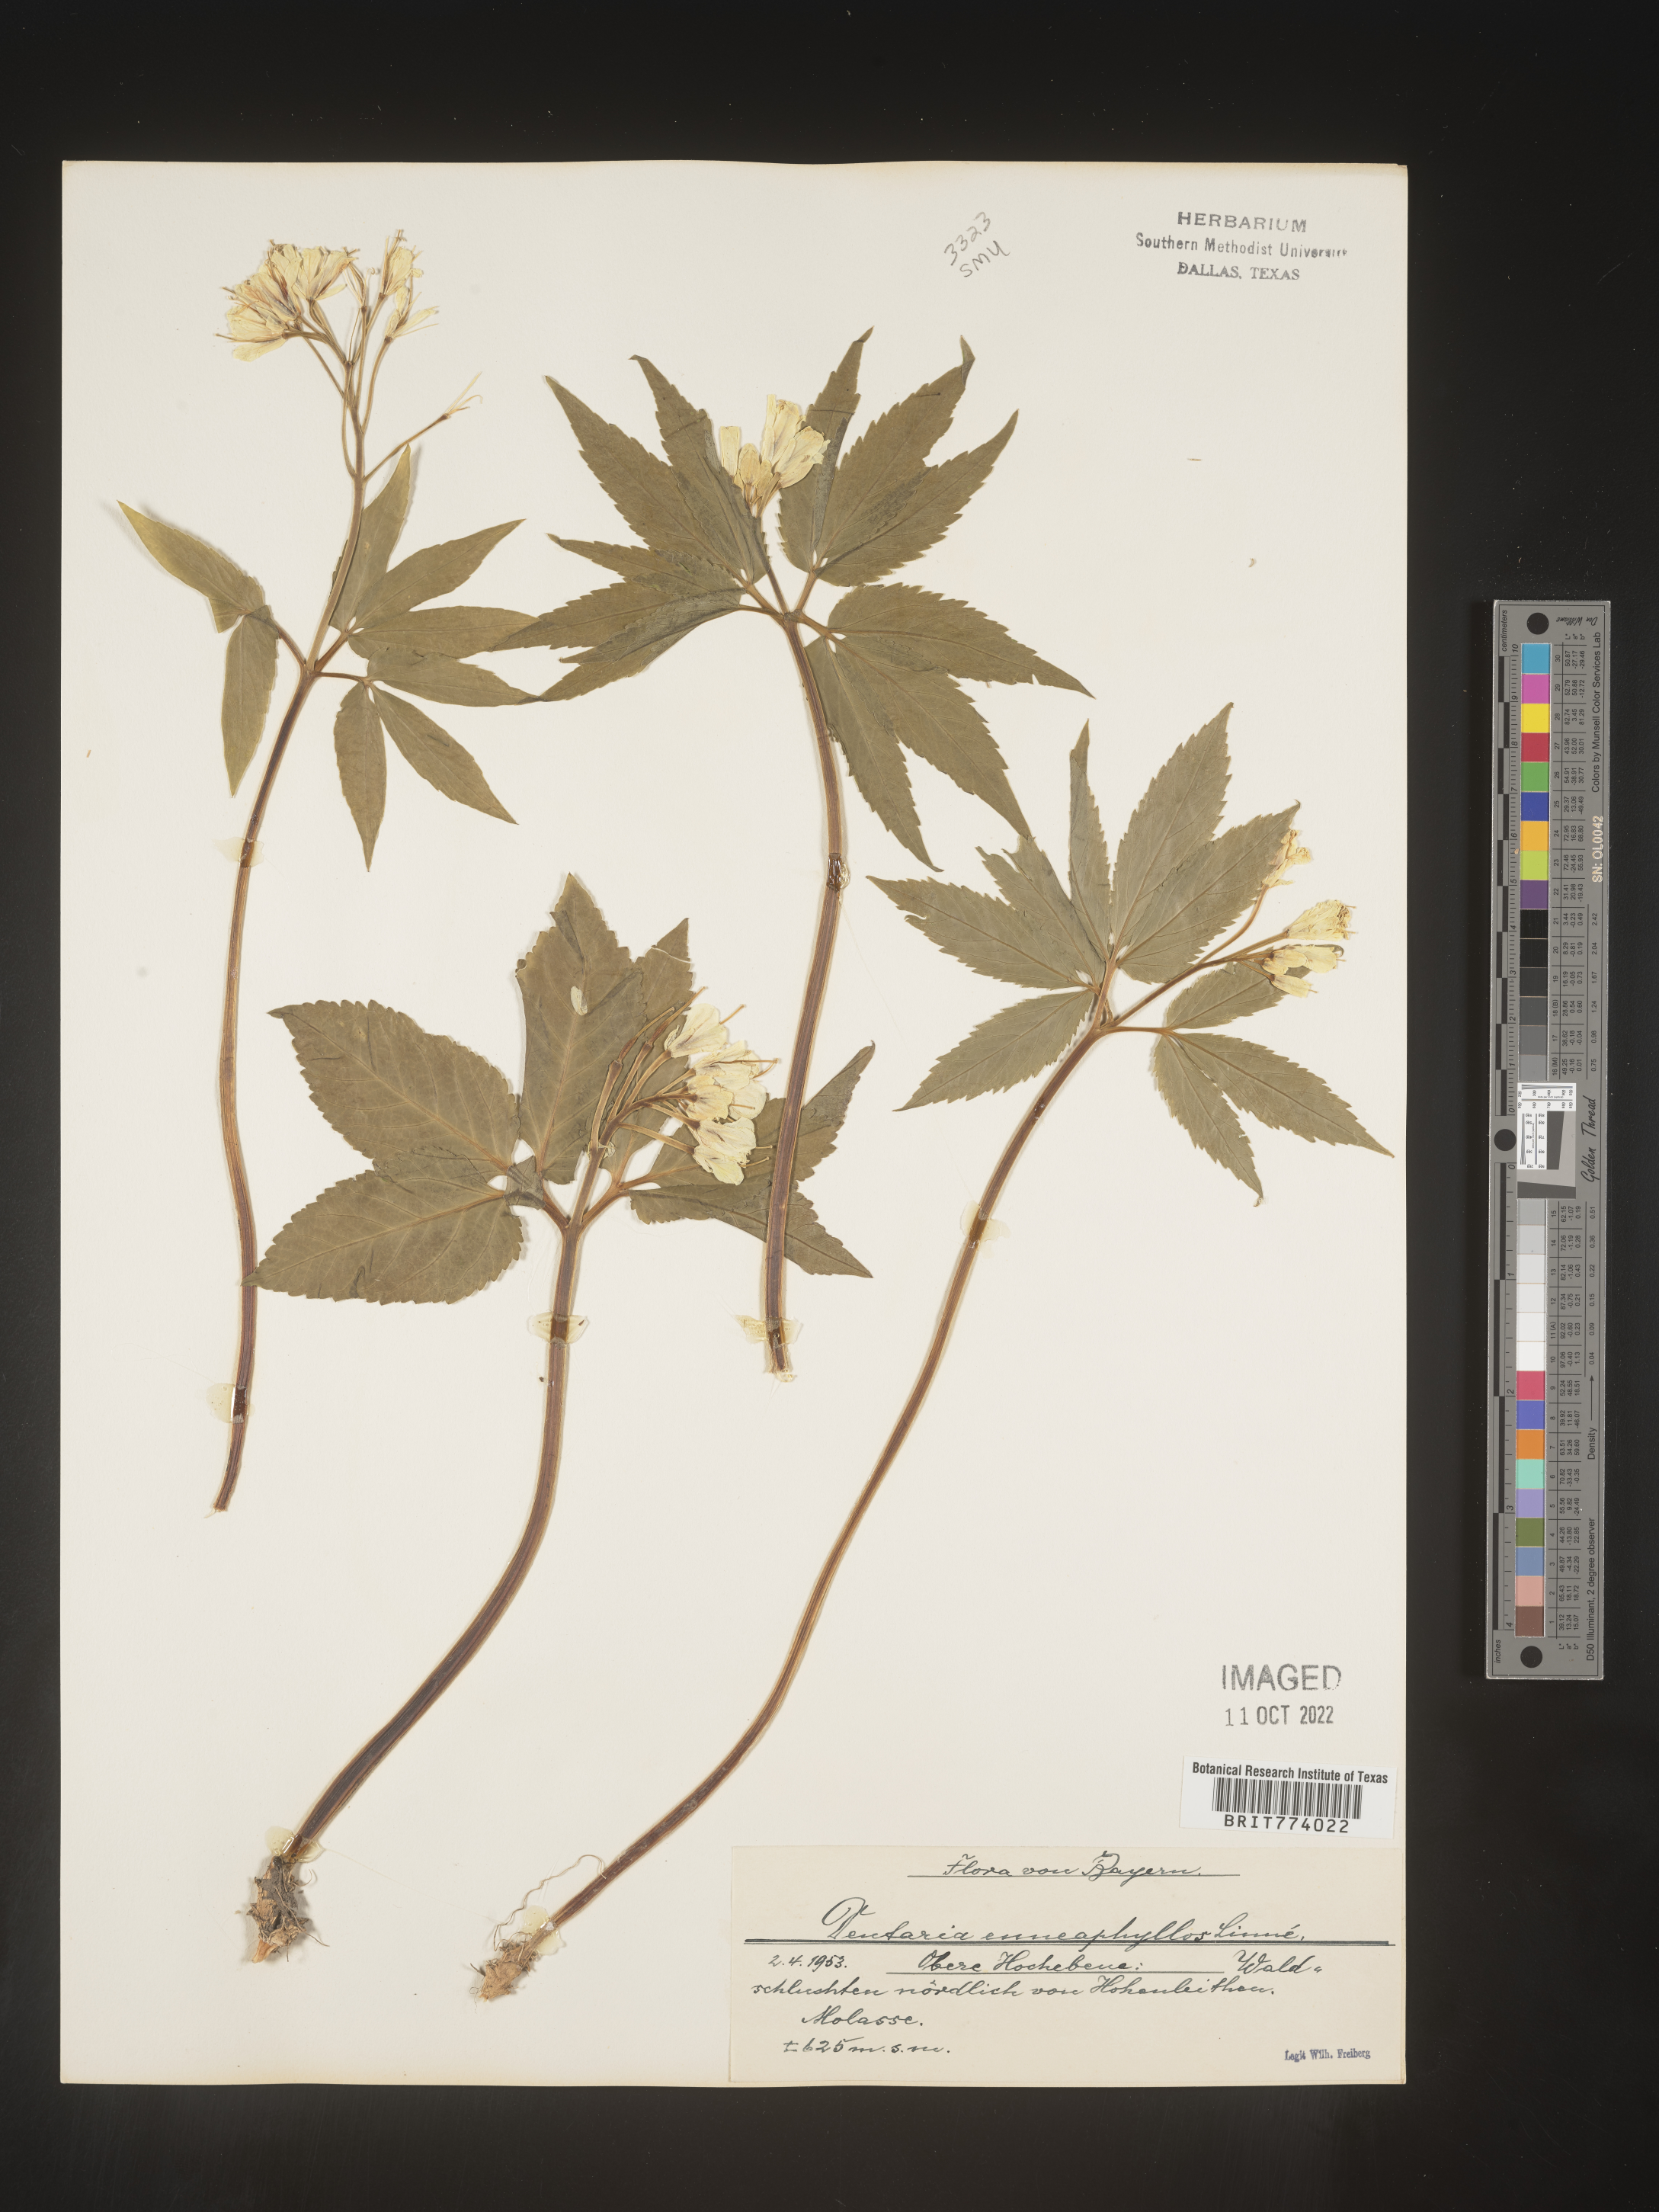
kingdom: Plantae
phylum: Tracheophyta
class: Magnoliopsida
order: Brassicales
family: Brassicaceae
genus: Cardamine
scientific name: Cardamine
